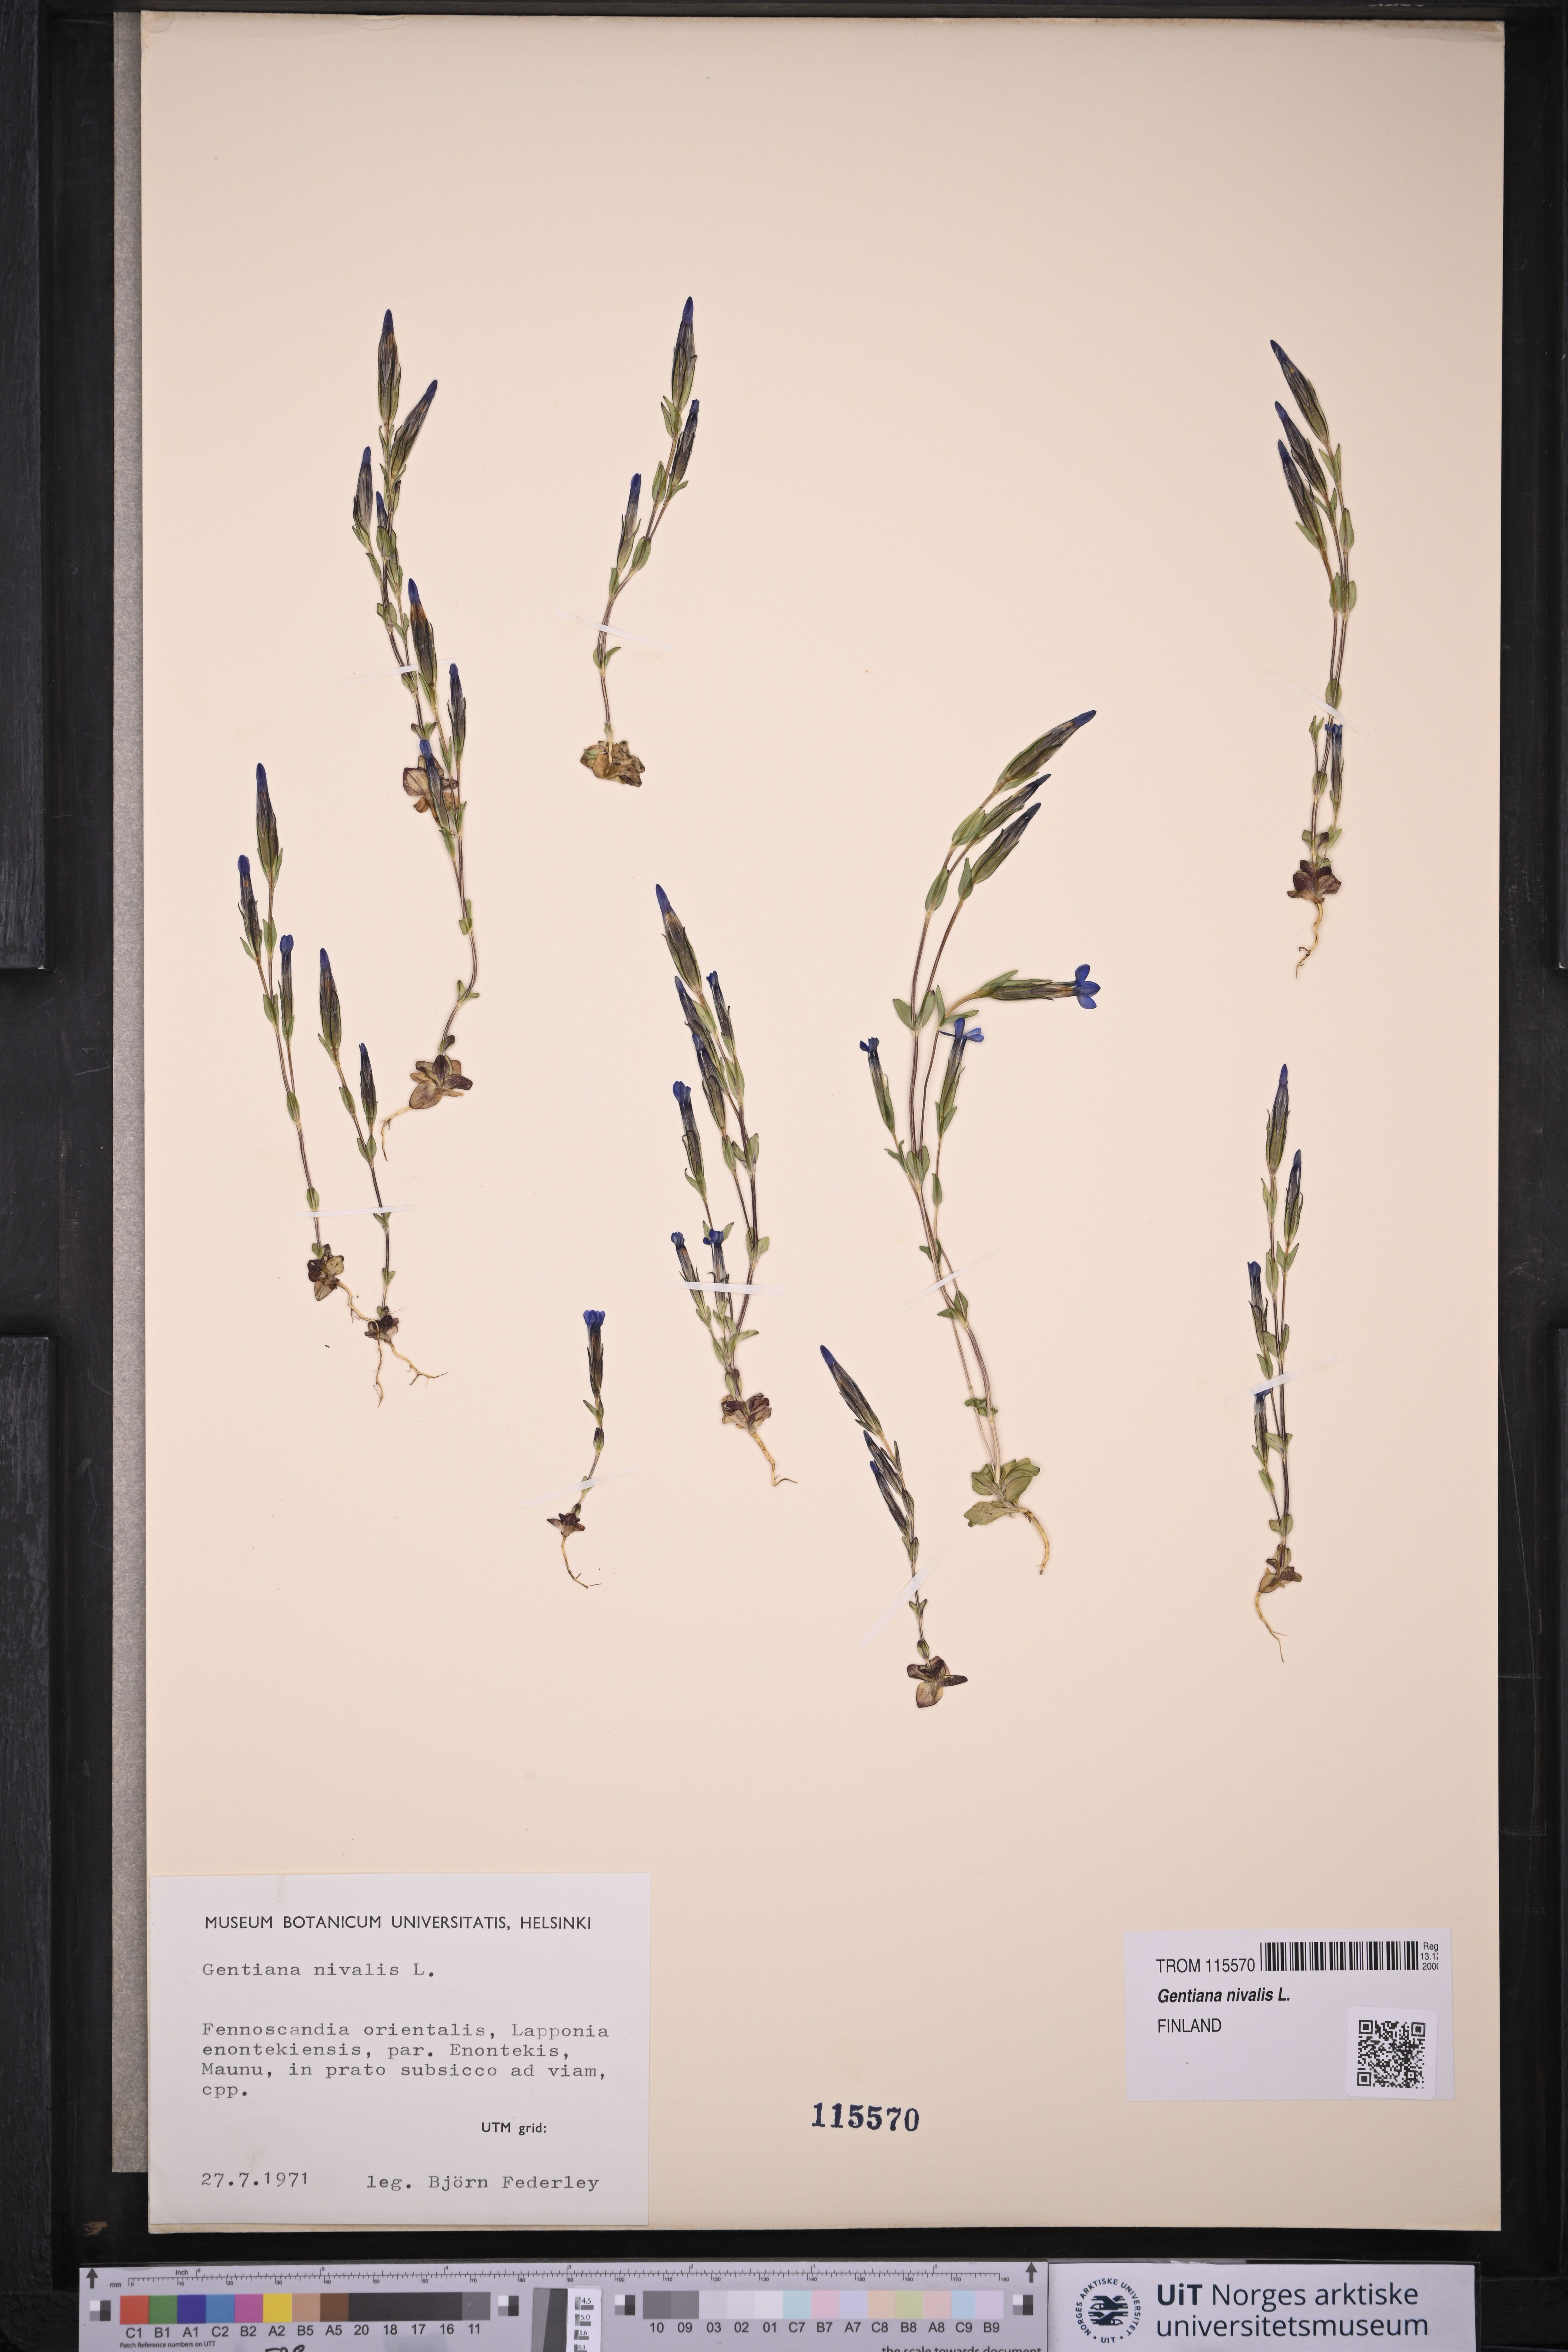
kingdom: Plantae
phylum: Tracheophyta
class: Magnoliopsida
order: Gentianales
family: Gentianaceae
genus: Gentiana
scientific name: Gentiana nivalis
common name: Alpine gentian
